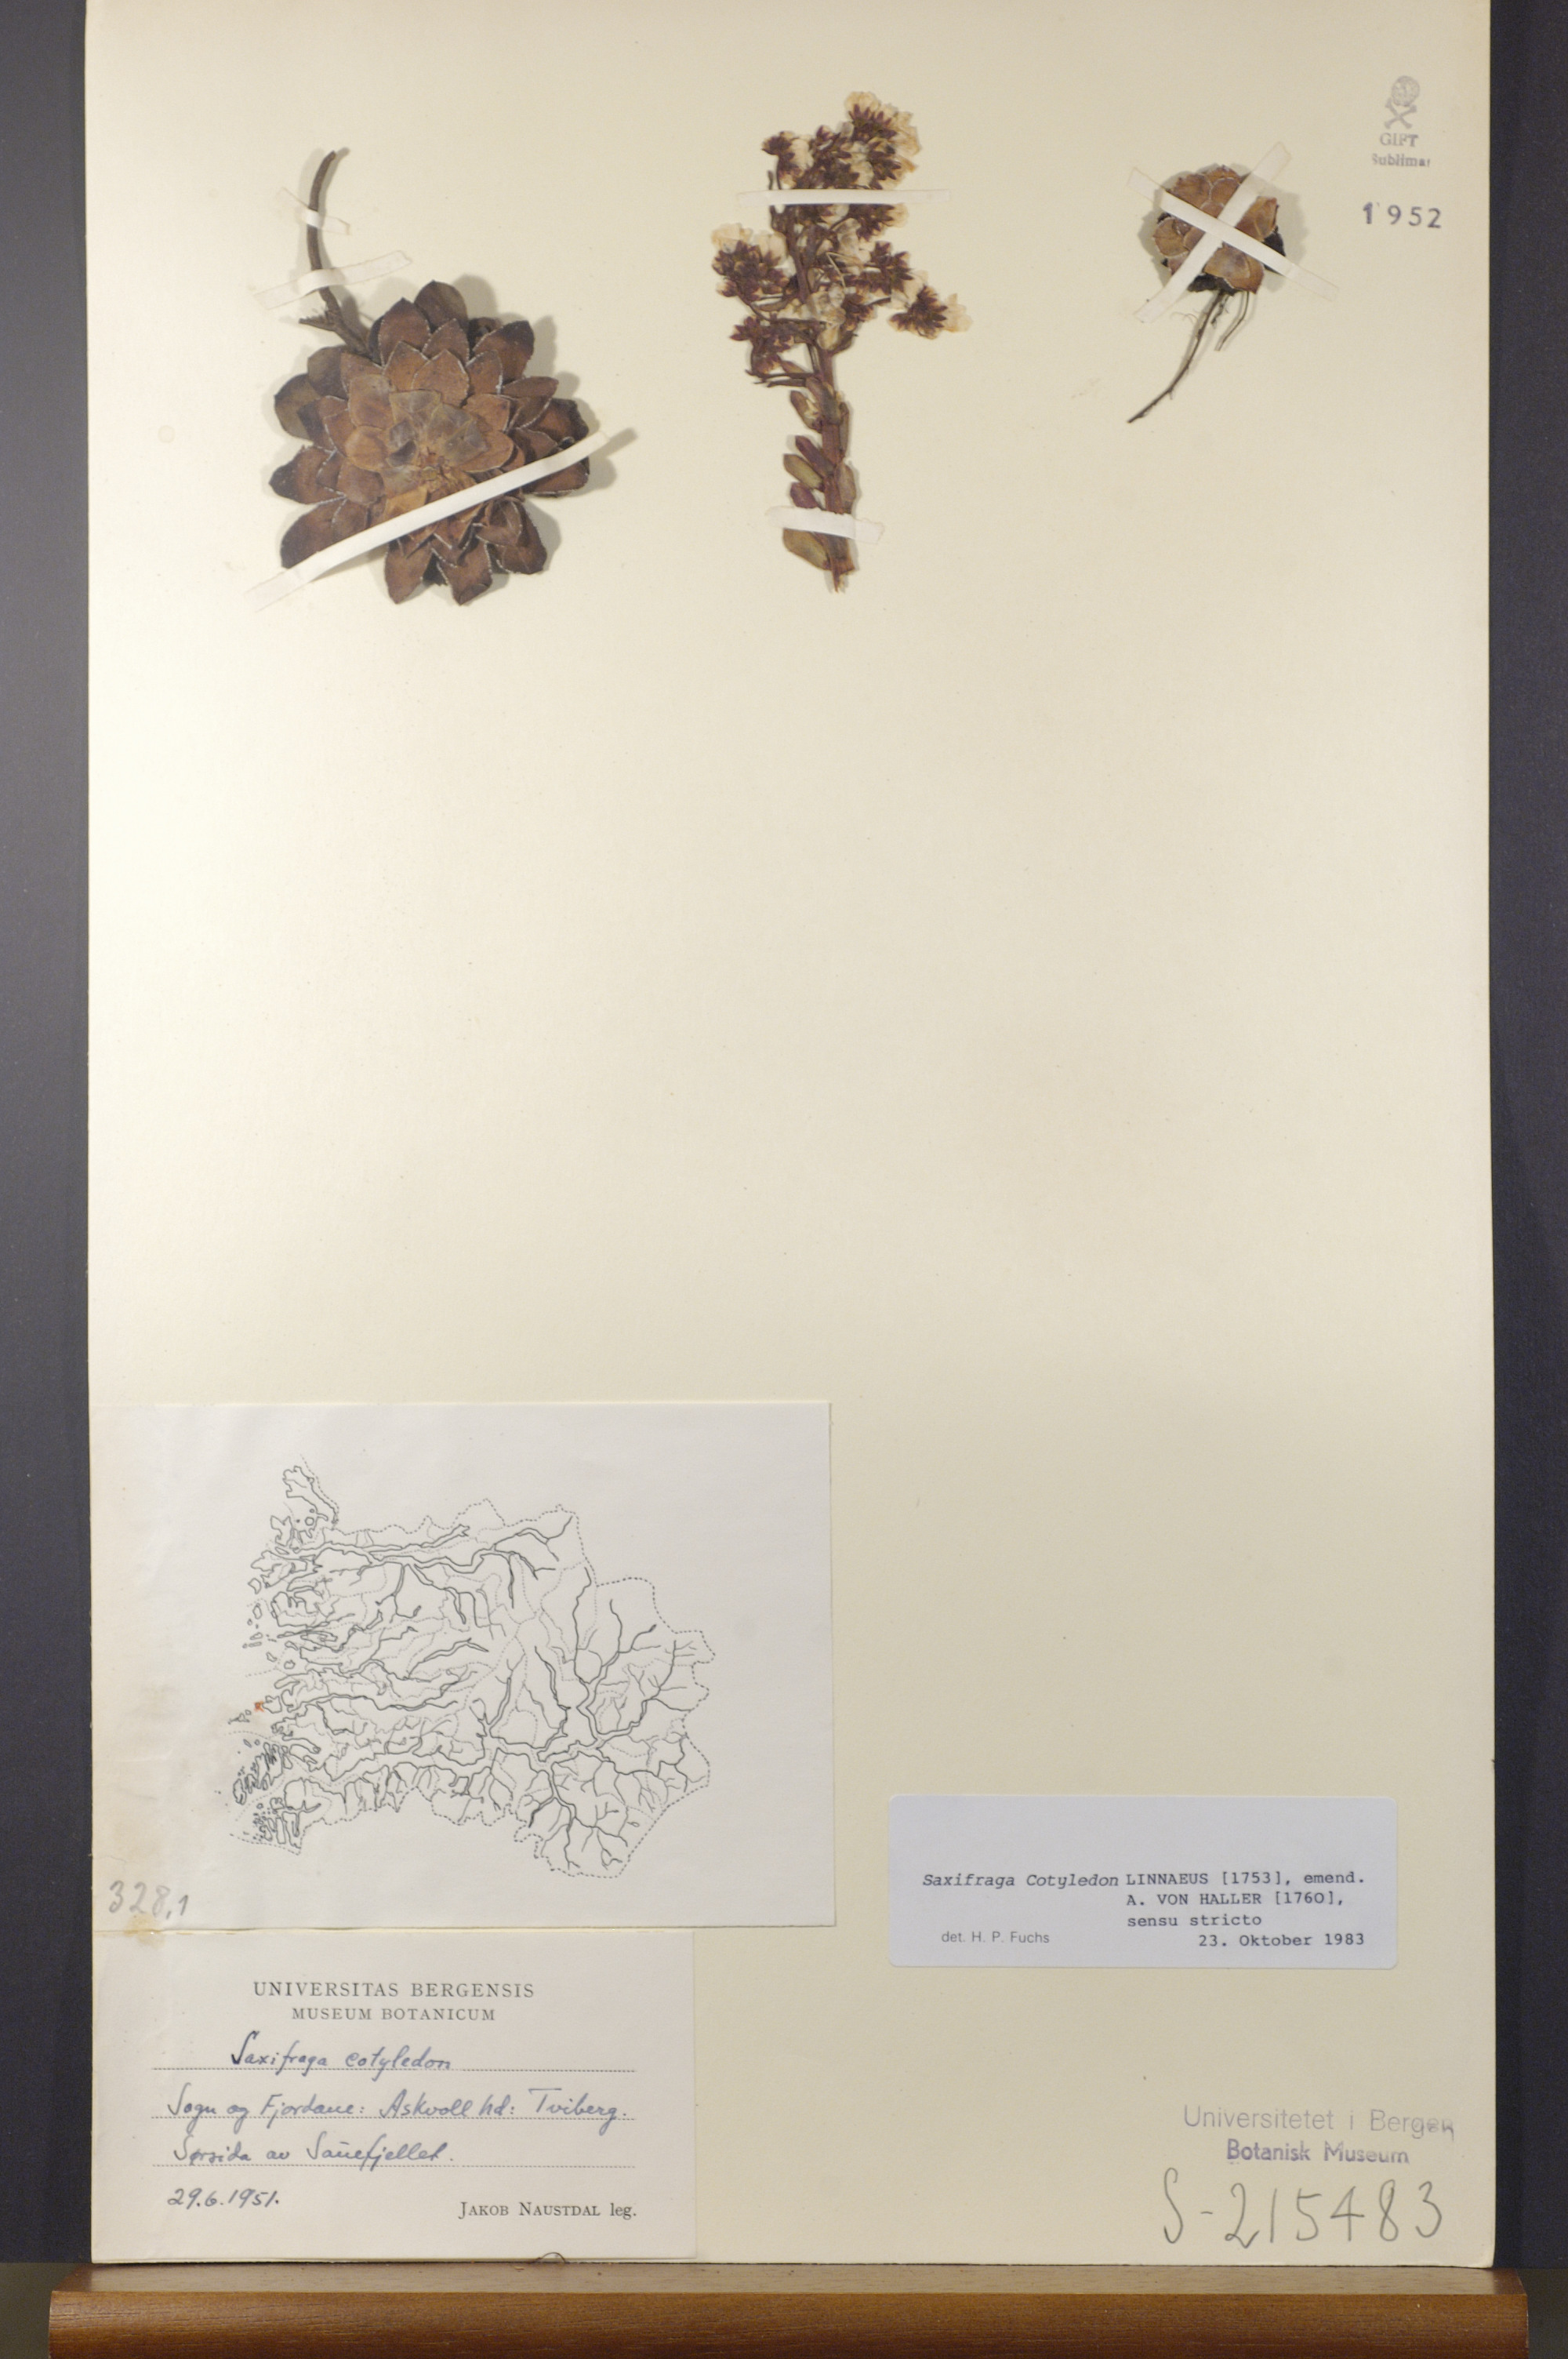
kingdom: Plantae
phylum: Tracheophyta
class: Magnoliopsida
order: Saxifragales
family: Saxifragaceae
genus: Saxifraga
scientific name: Saxifraga cotyledon
